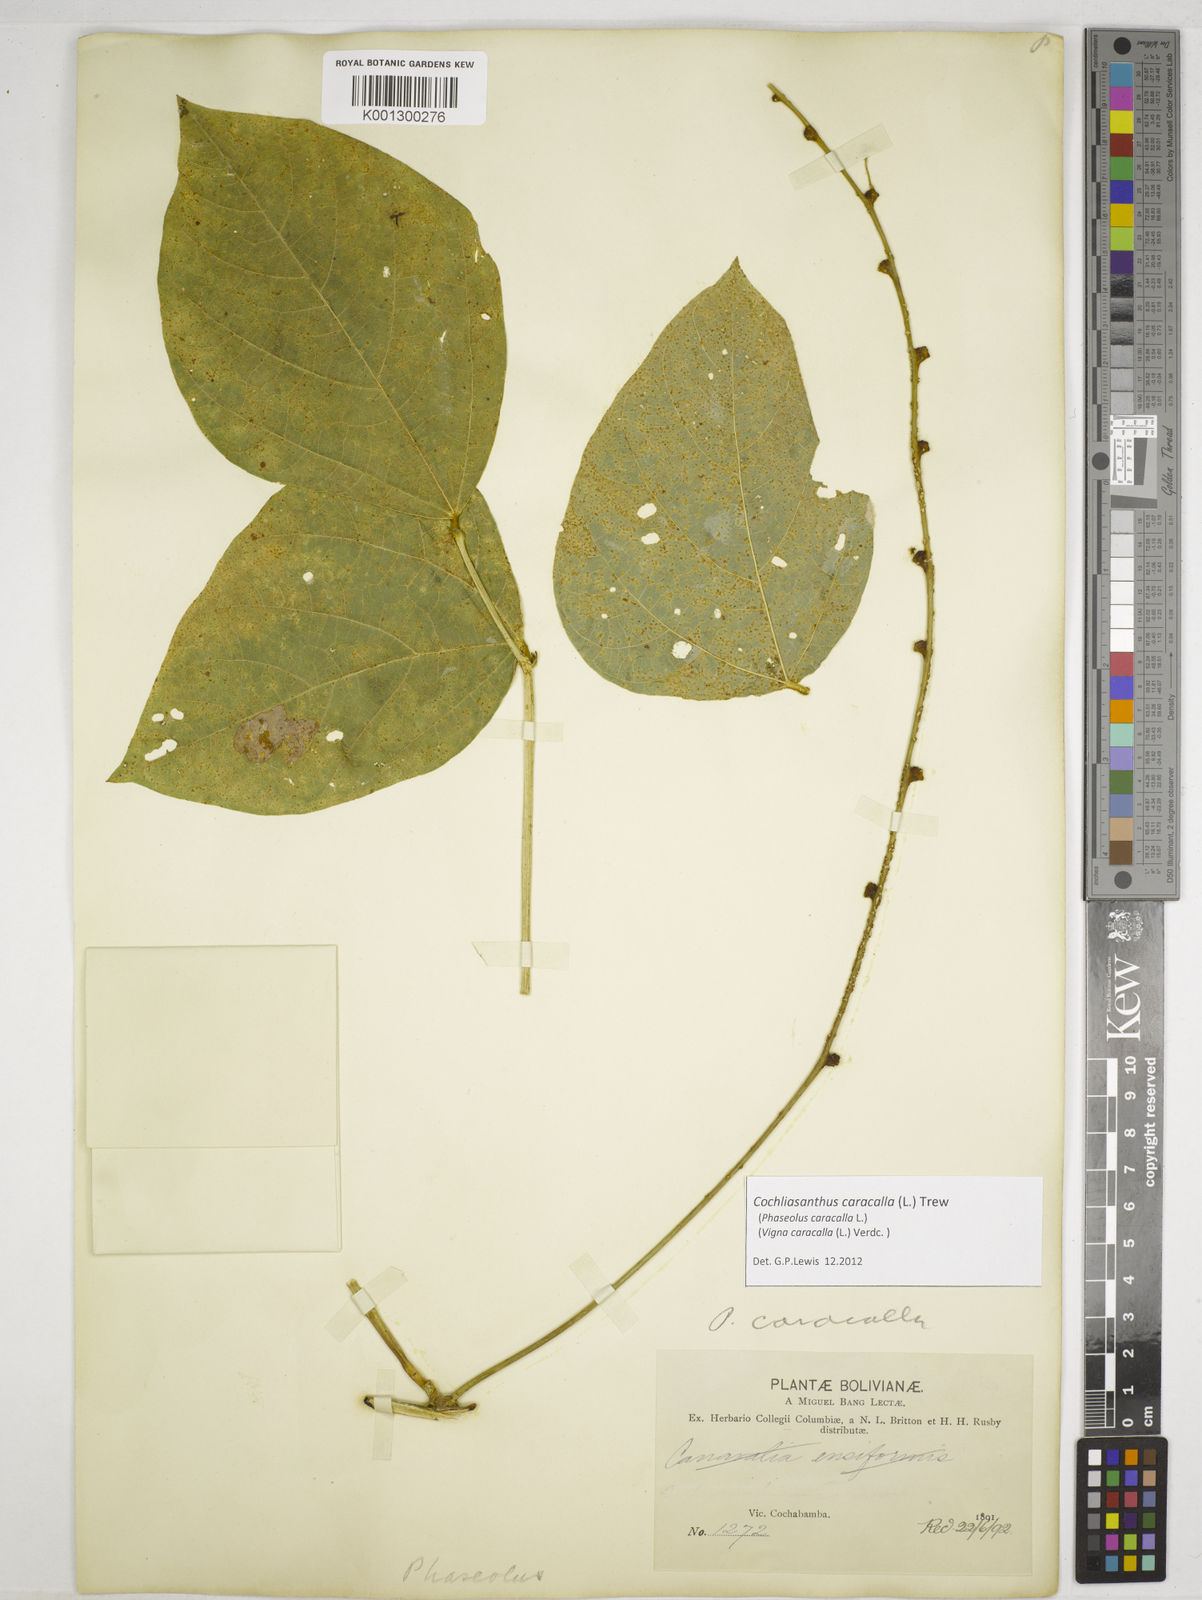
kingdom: Plantae
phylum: Tracheophyta
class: Magnoliopsida
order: Fabales
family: Fabaceae
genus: Cochliasanthus
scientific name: Cochliasanthus caracalla
